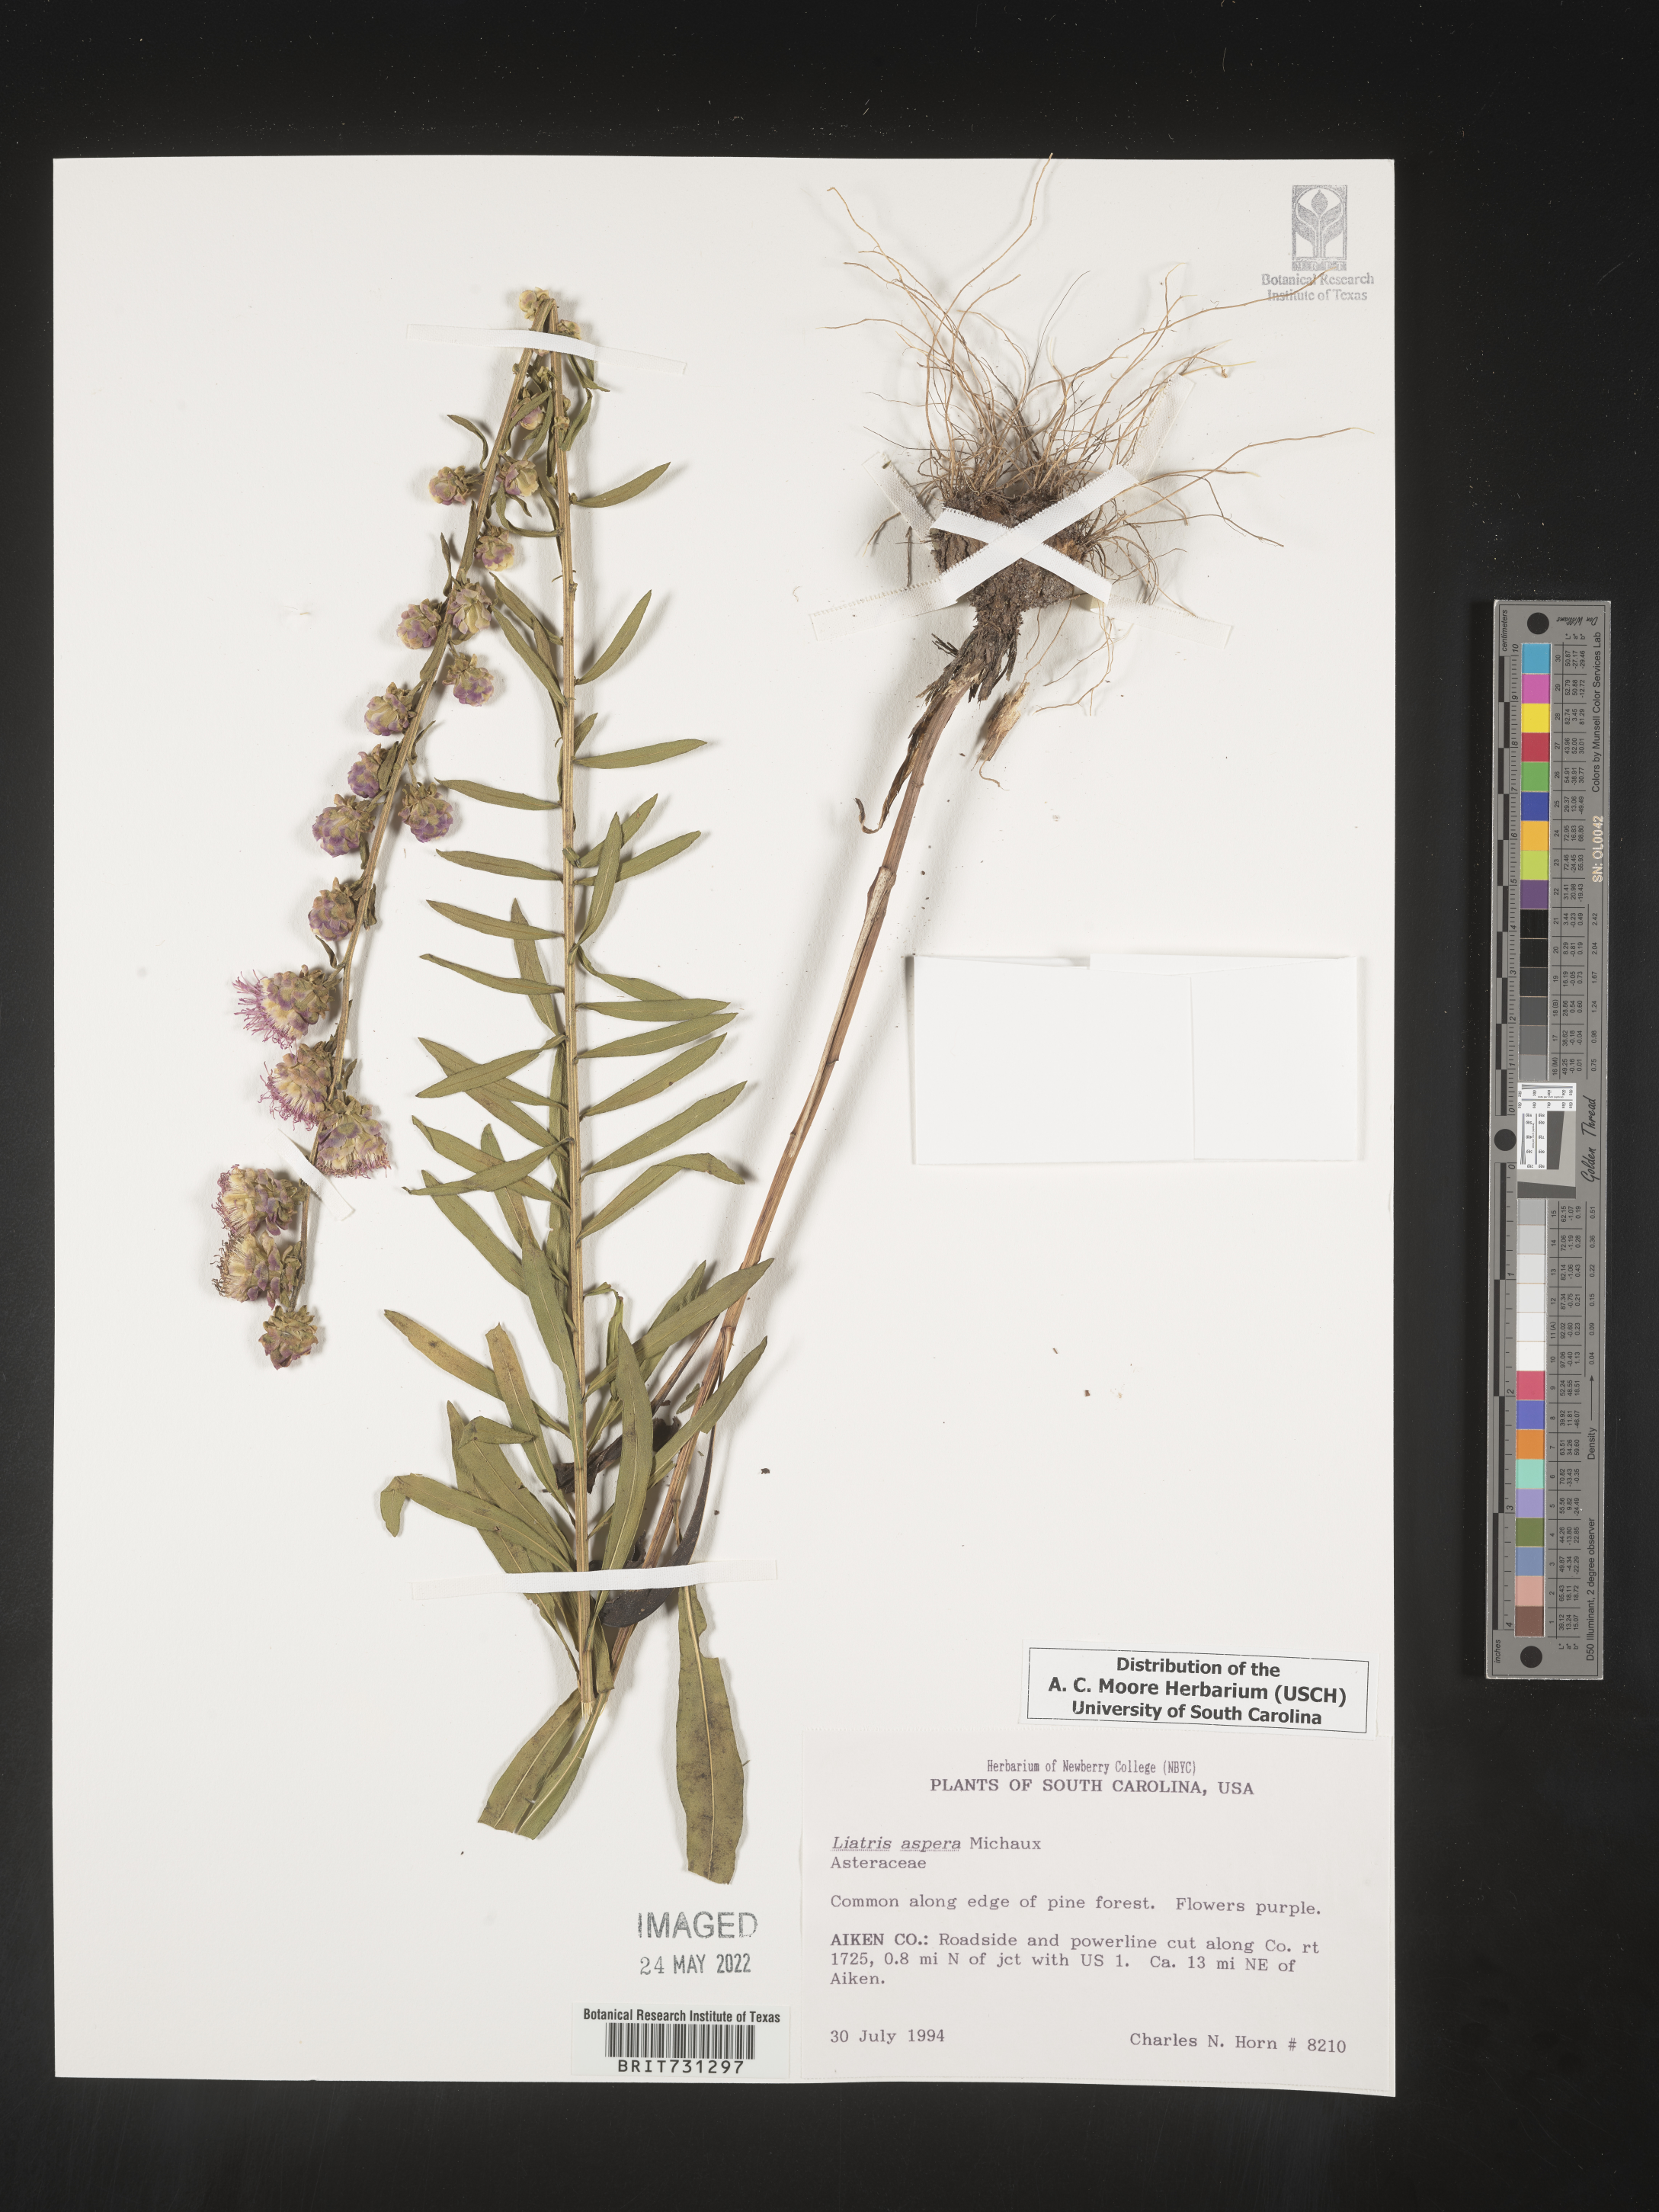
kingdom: Plantae
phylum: Tracheophyta
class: Magnoliopsida
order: Asterales
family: Asteraceae
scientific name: Asteraceae
